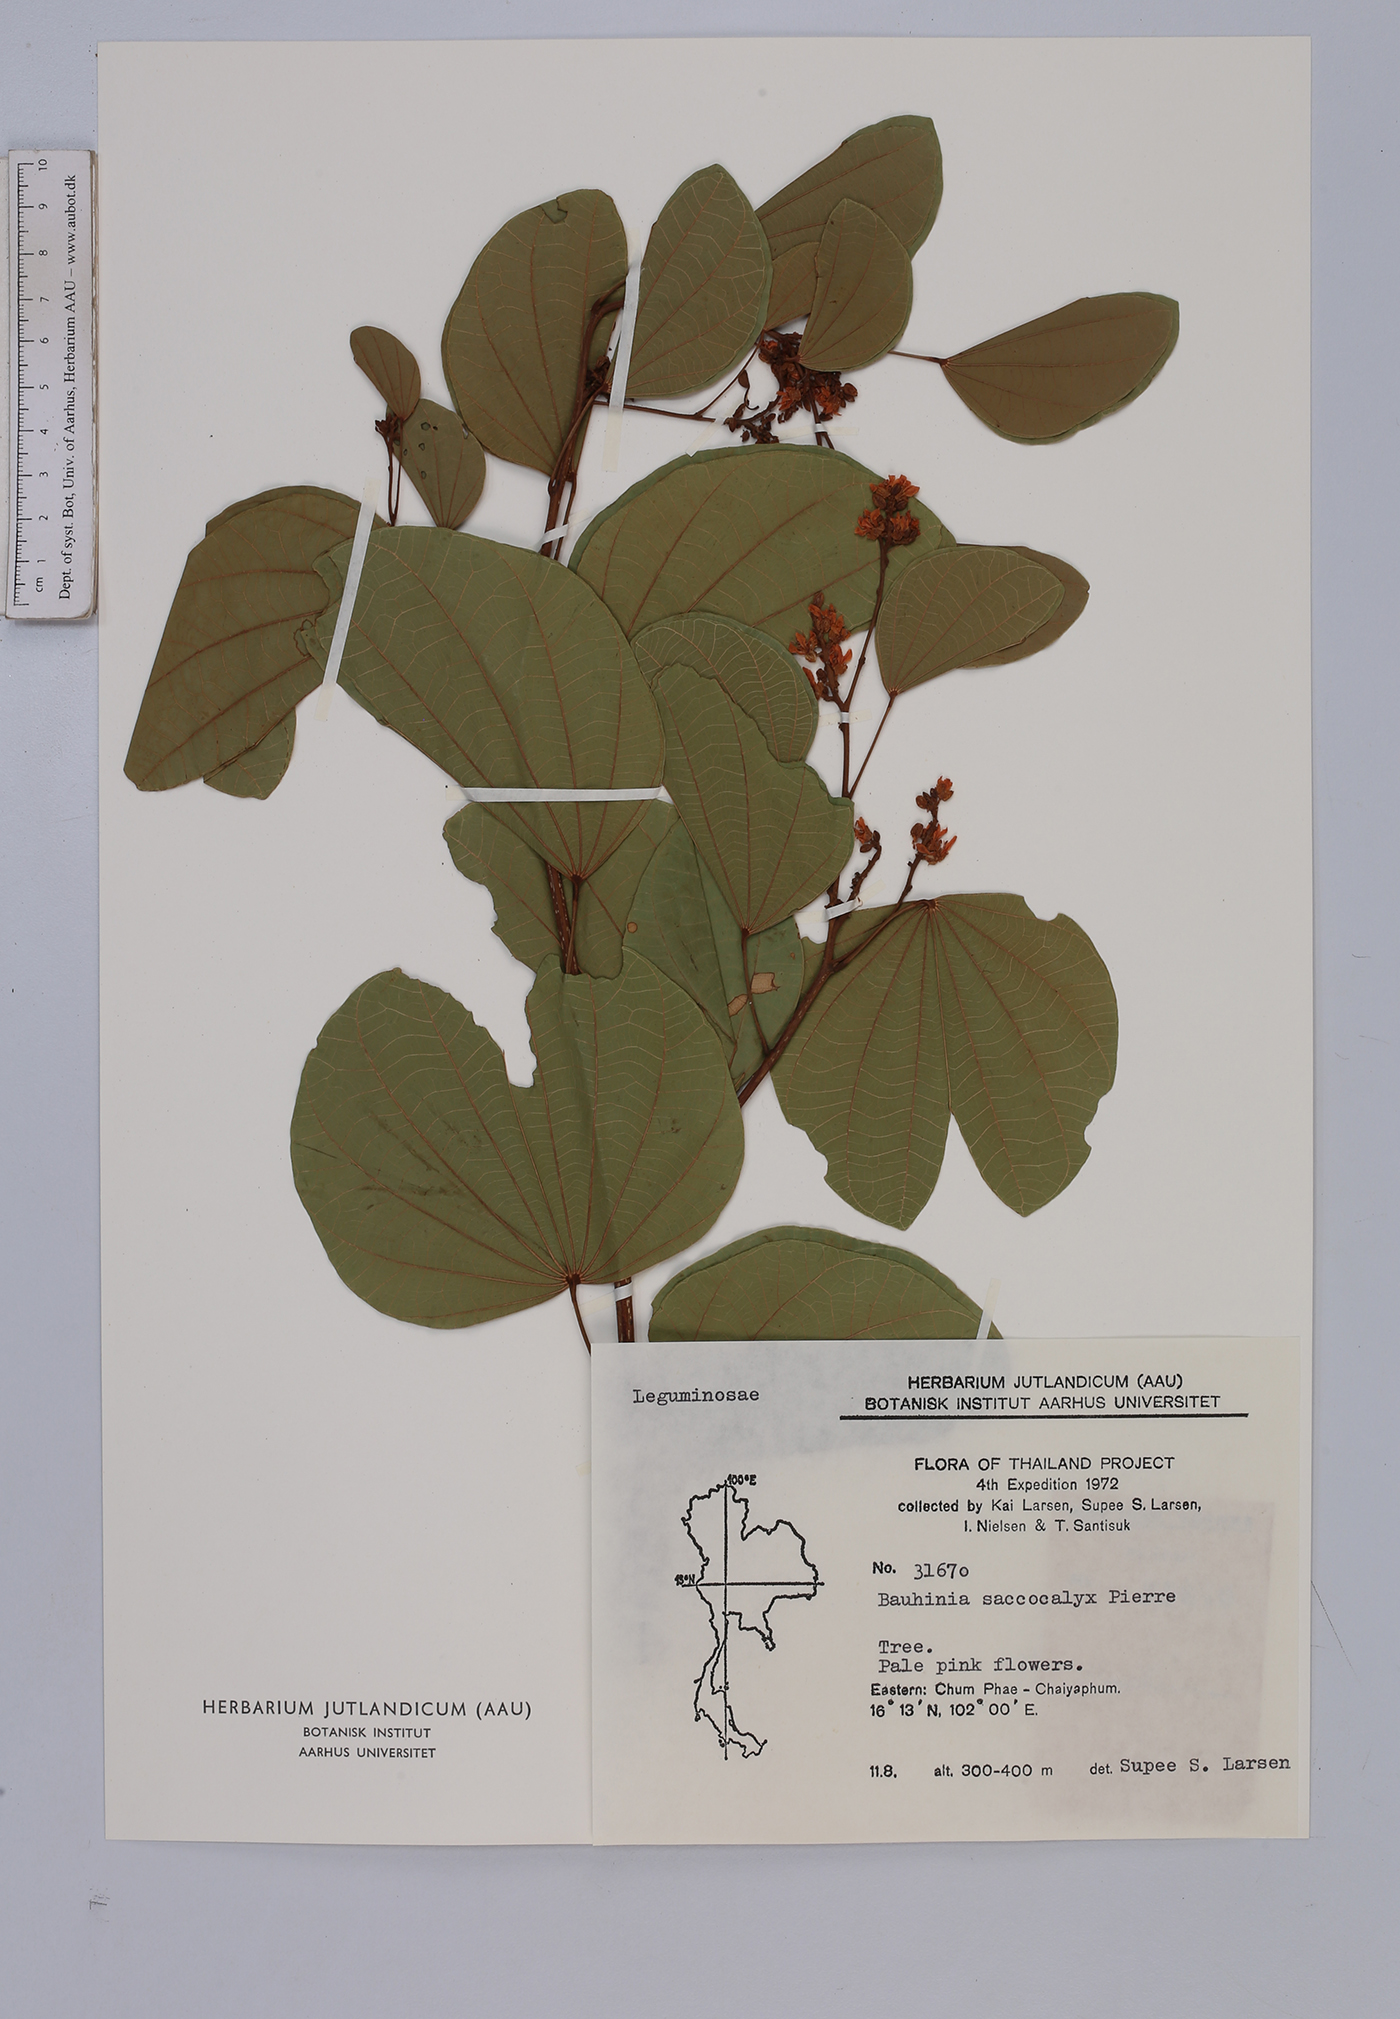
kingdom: Plantae
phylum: Tracheophyta
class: Magnoliopsida
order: Fabales
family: Fabaceae
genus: Bauhinia
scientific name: Bauhinia saccocalyx
